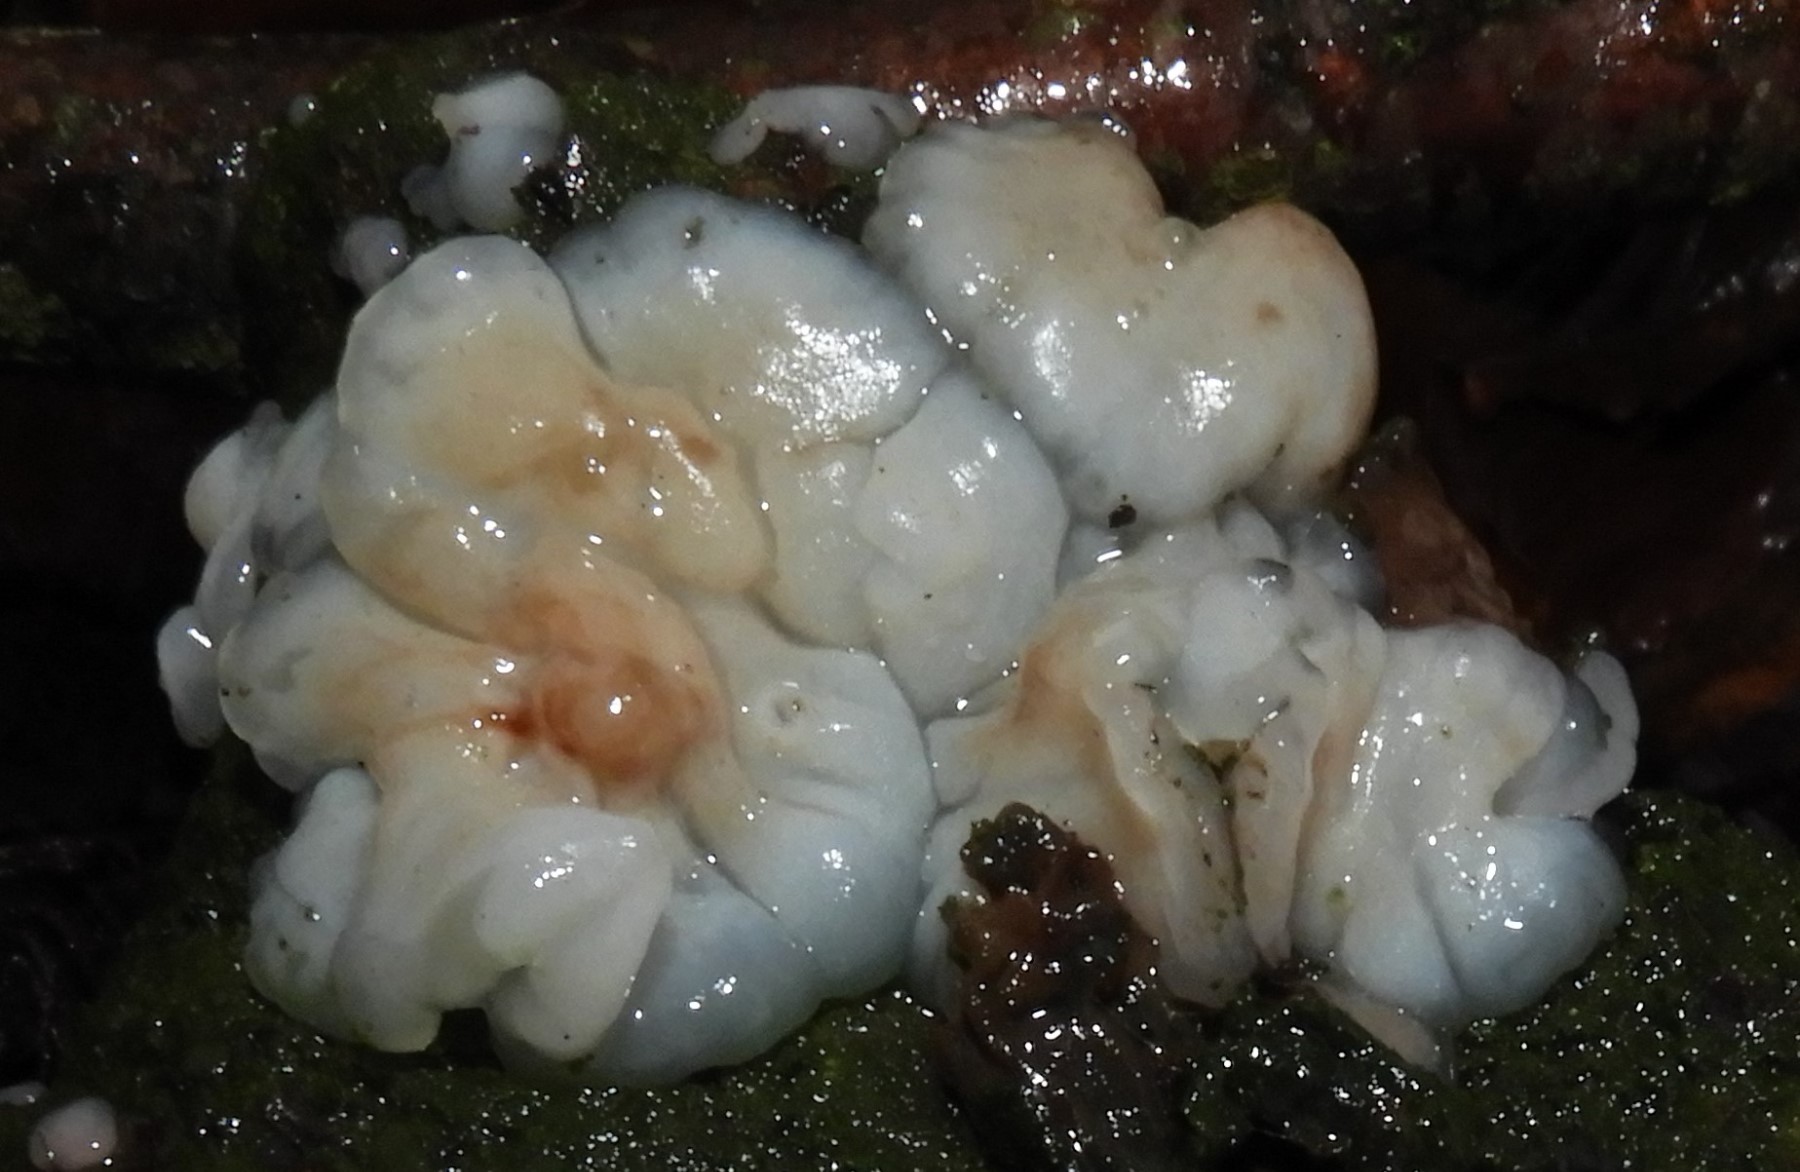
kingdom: Fungi
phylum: Basidiomycota
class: Agaricomycetes
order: Auriculariales
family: Auriculariaceae
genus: Exidia
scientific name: Exidia thuretiana
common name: hvidlig bævretop
